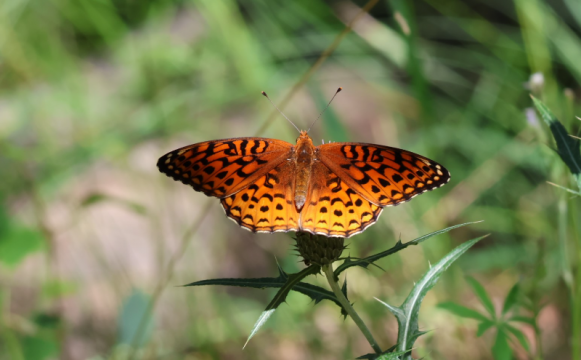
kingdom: Animalia
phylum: Arthropoda
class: Insecta
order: Lepidoptera
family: Nymphalidae
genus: Speyeria
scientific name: Speyeria atlantis
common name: Northwestern Fritillary
